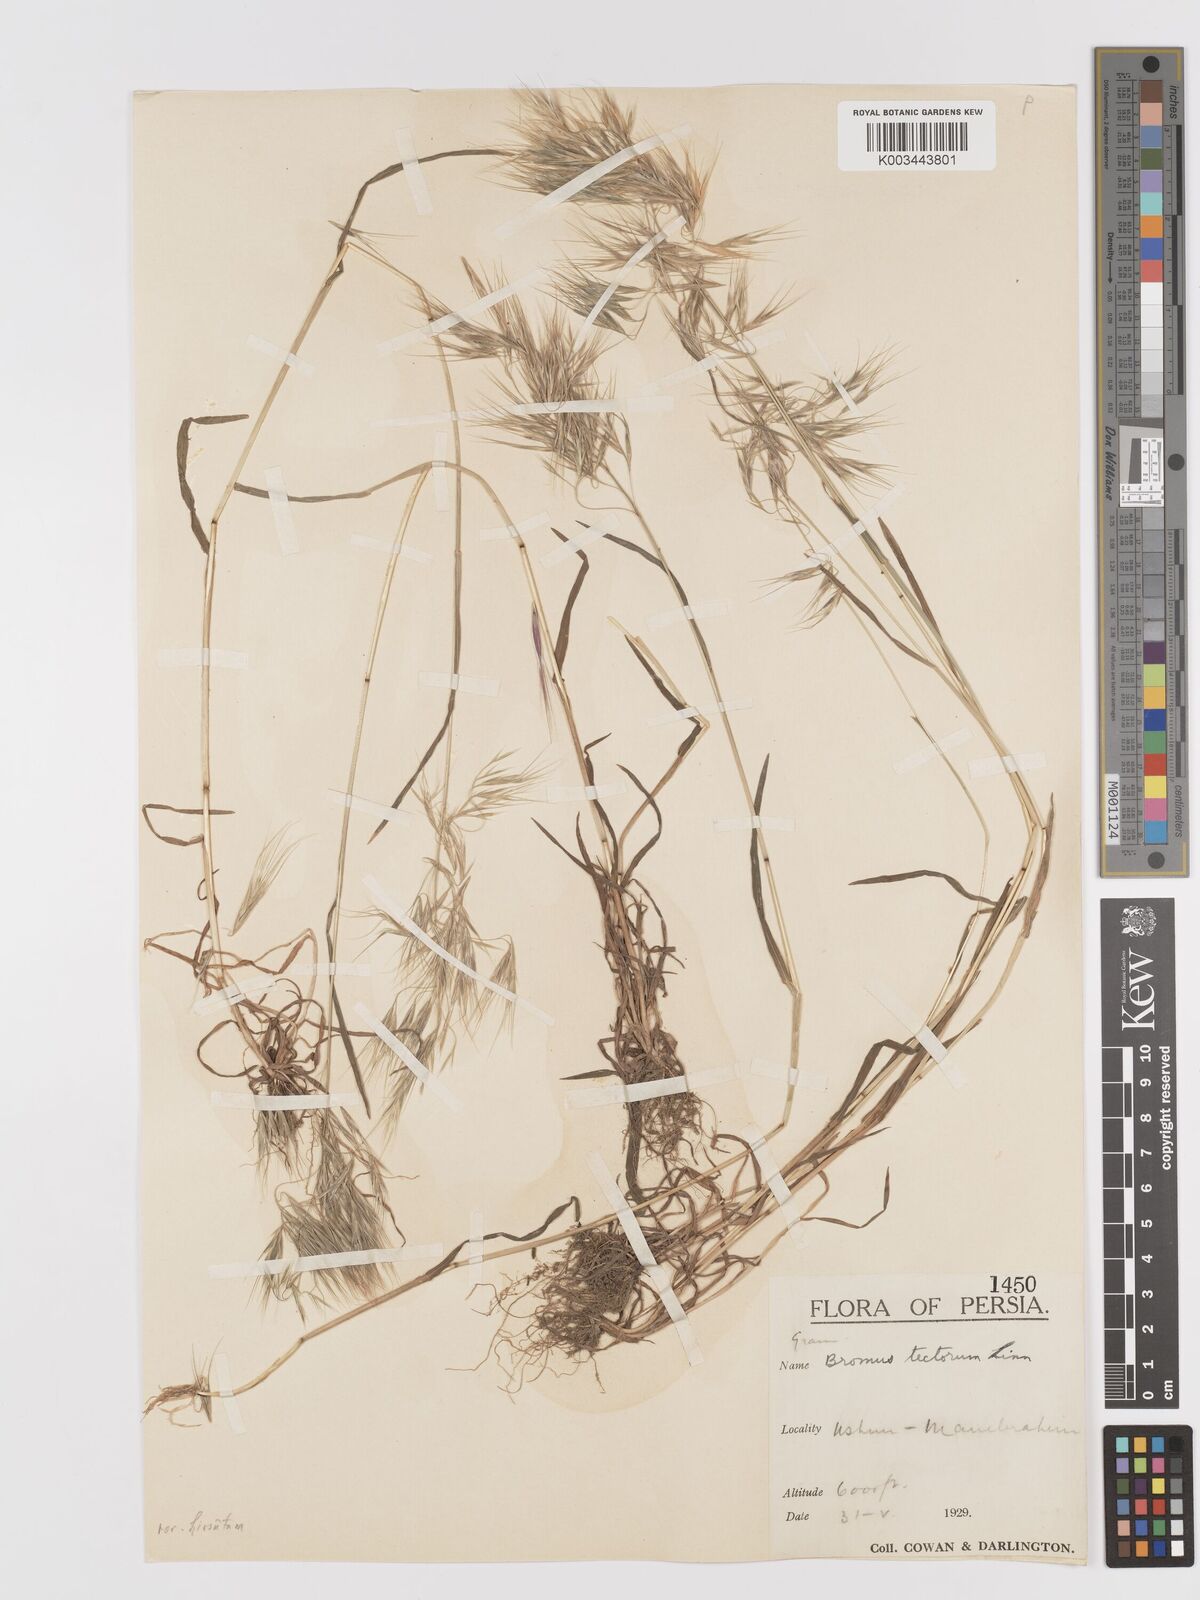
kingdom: Plantae
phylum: Tracheophyta
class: Liliopsida
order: Poales
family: Poaceae
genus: Bromus
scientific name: Bromus tectorum
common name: Cheatgrass
